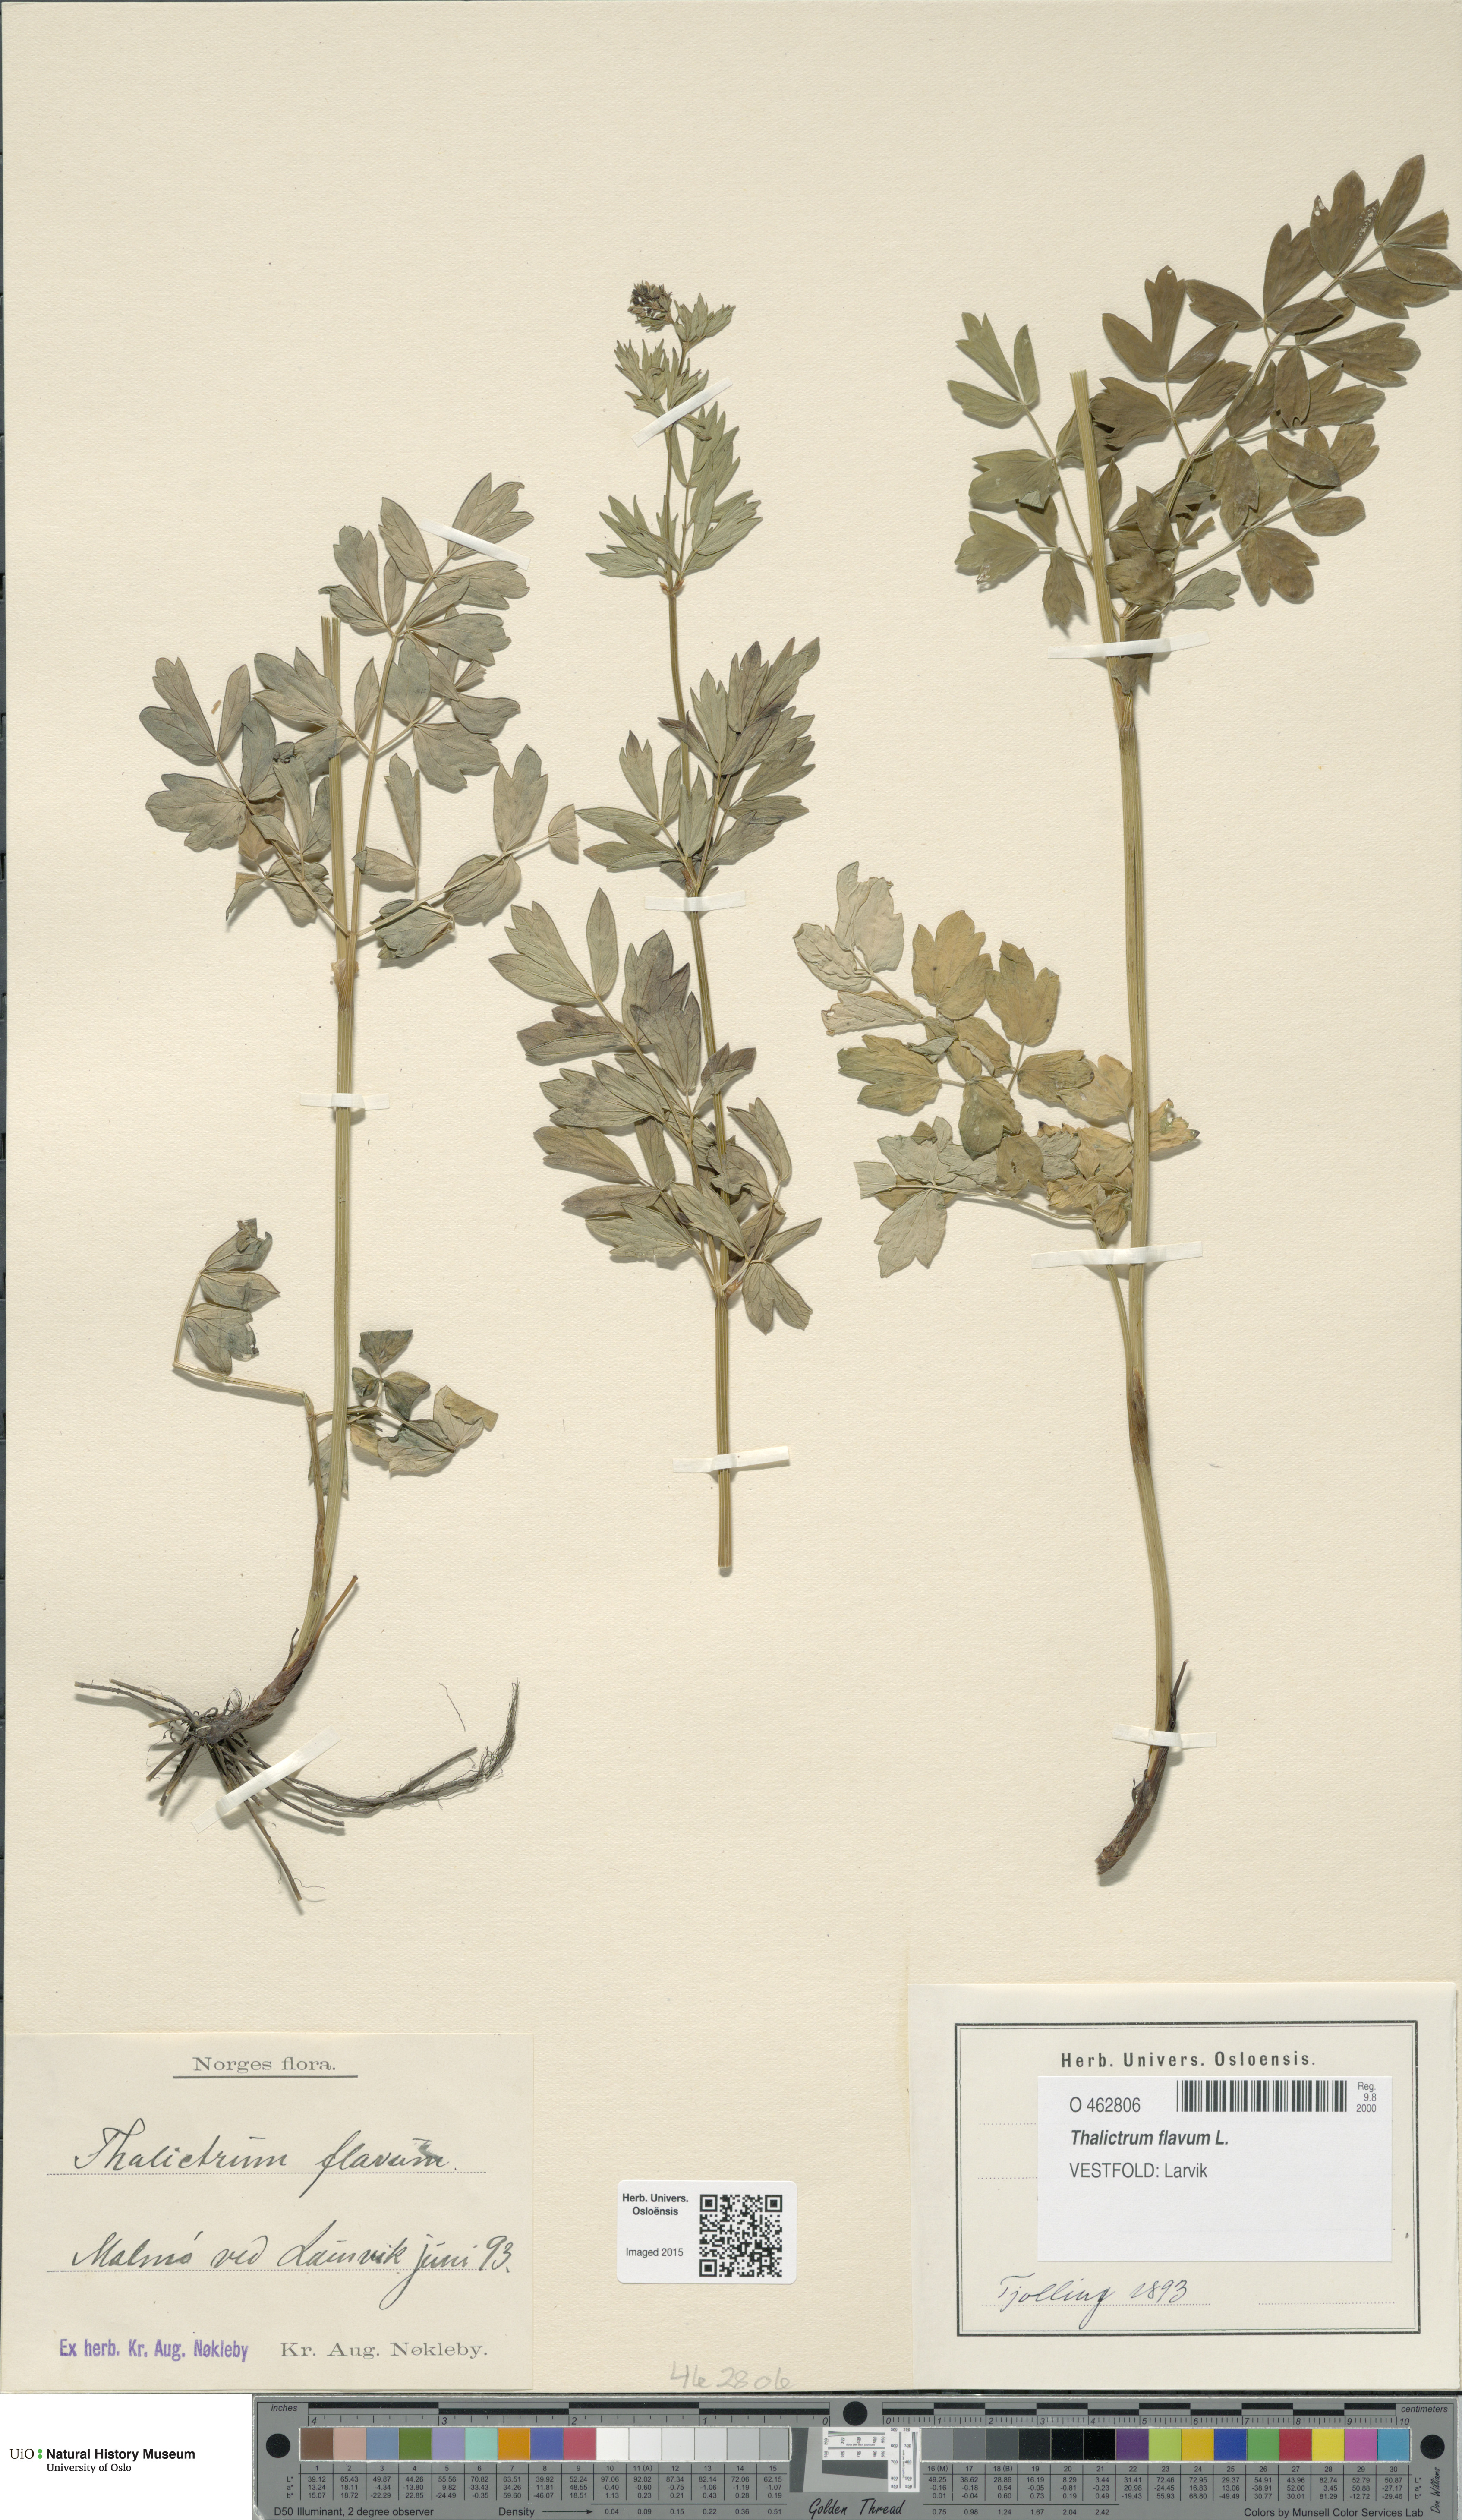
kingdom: Plantae
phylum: Tracheophyta
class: Magnoliopsida
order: Ranunculales
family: Ranunculaceae
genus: Thalictrum
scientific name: Thalictrum flavum
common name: Common meadow-rue
